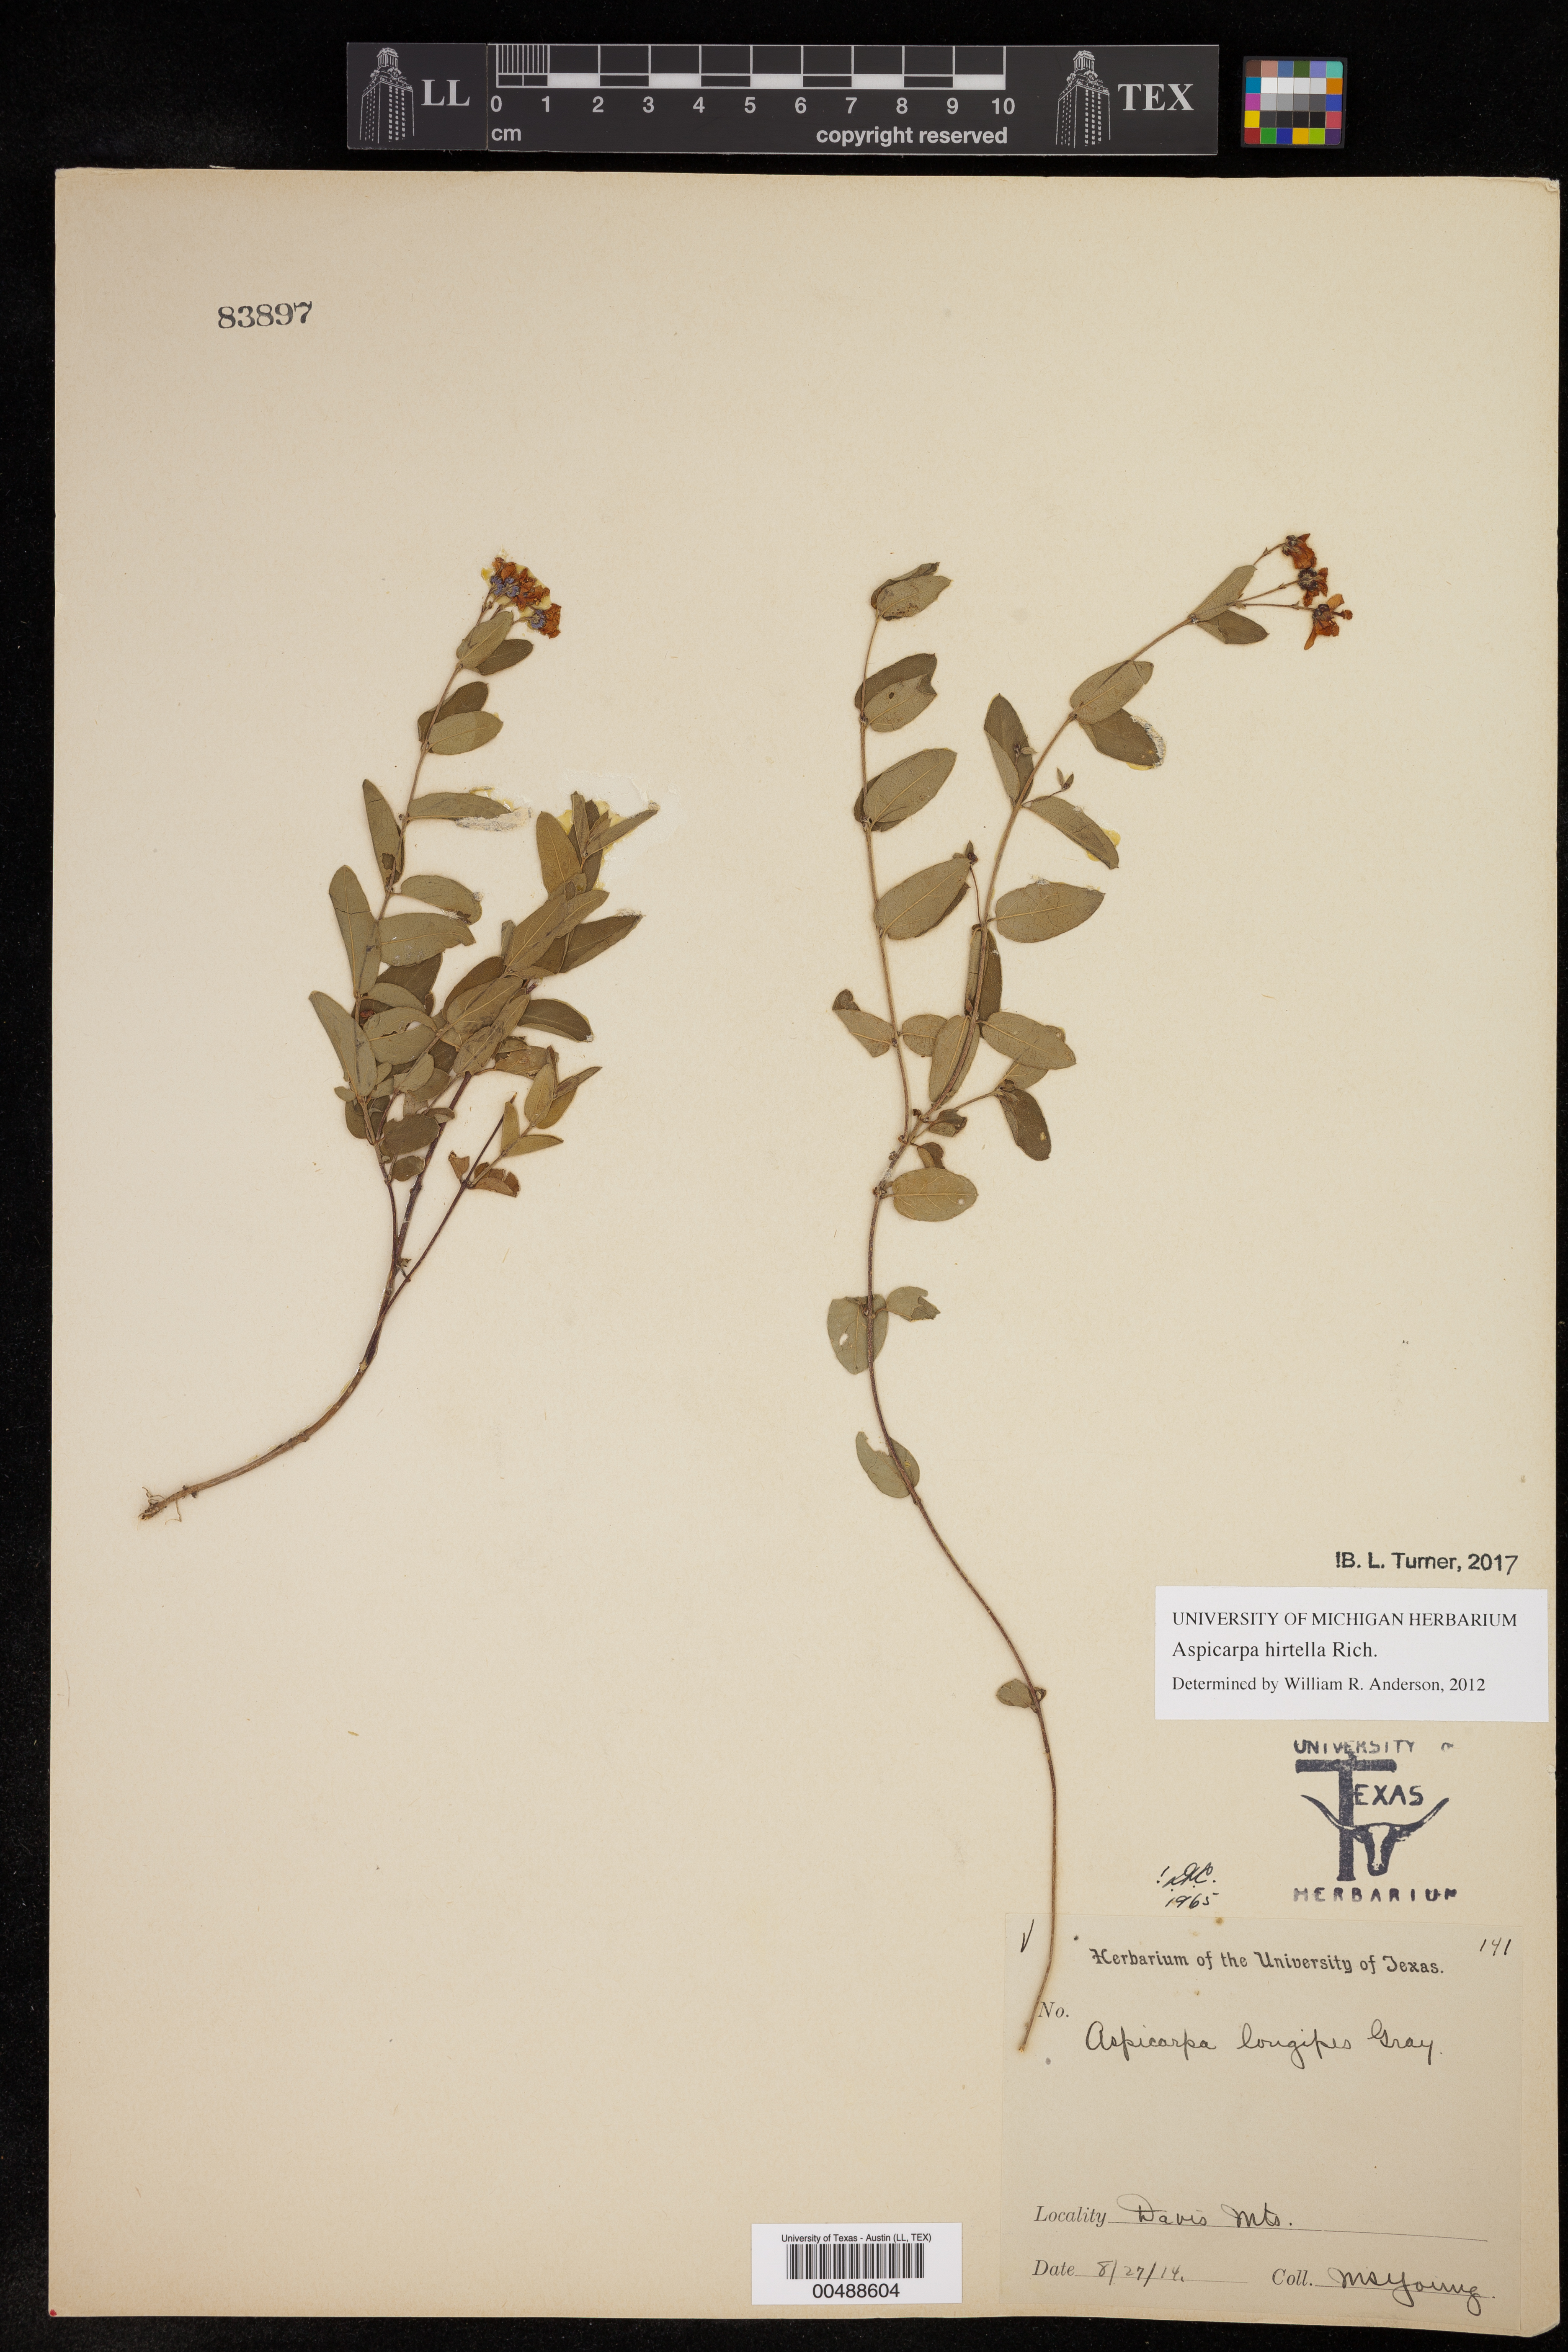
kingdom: Plantae
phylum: Tracheophyta
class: Magnoliopsida
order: Malpighiales
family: Malpighiaceae
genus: Aspicarpa
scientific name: Aspicarpa hirtella
